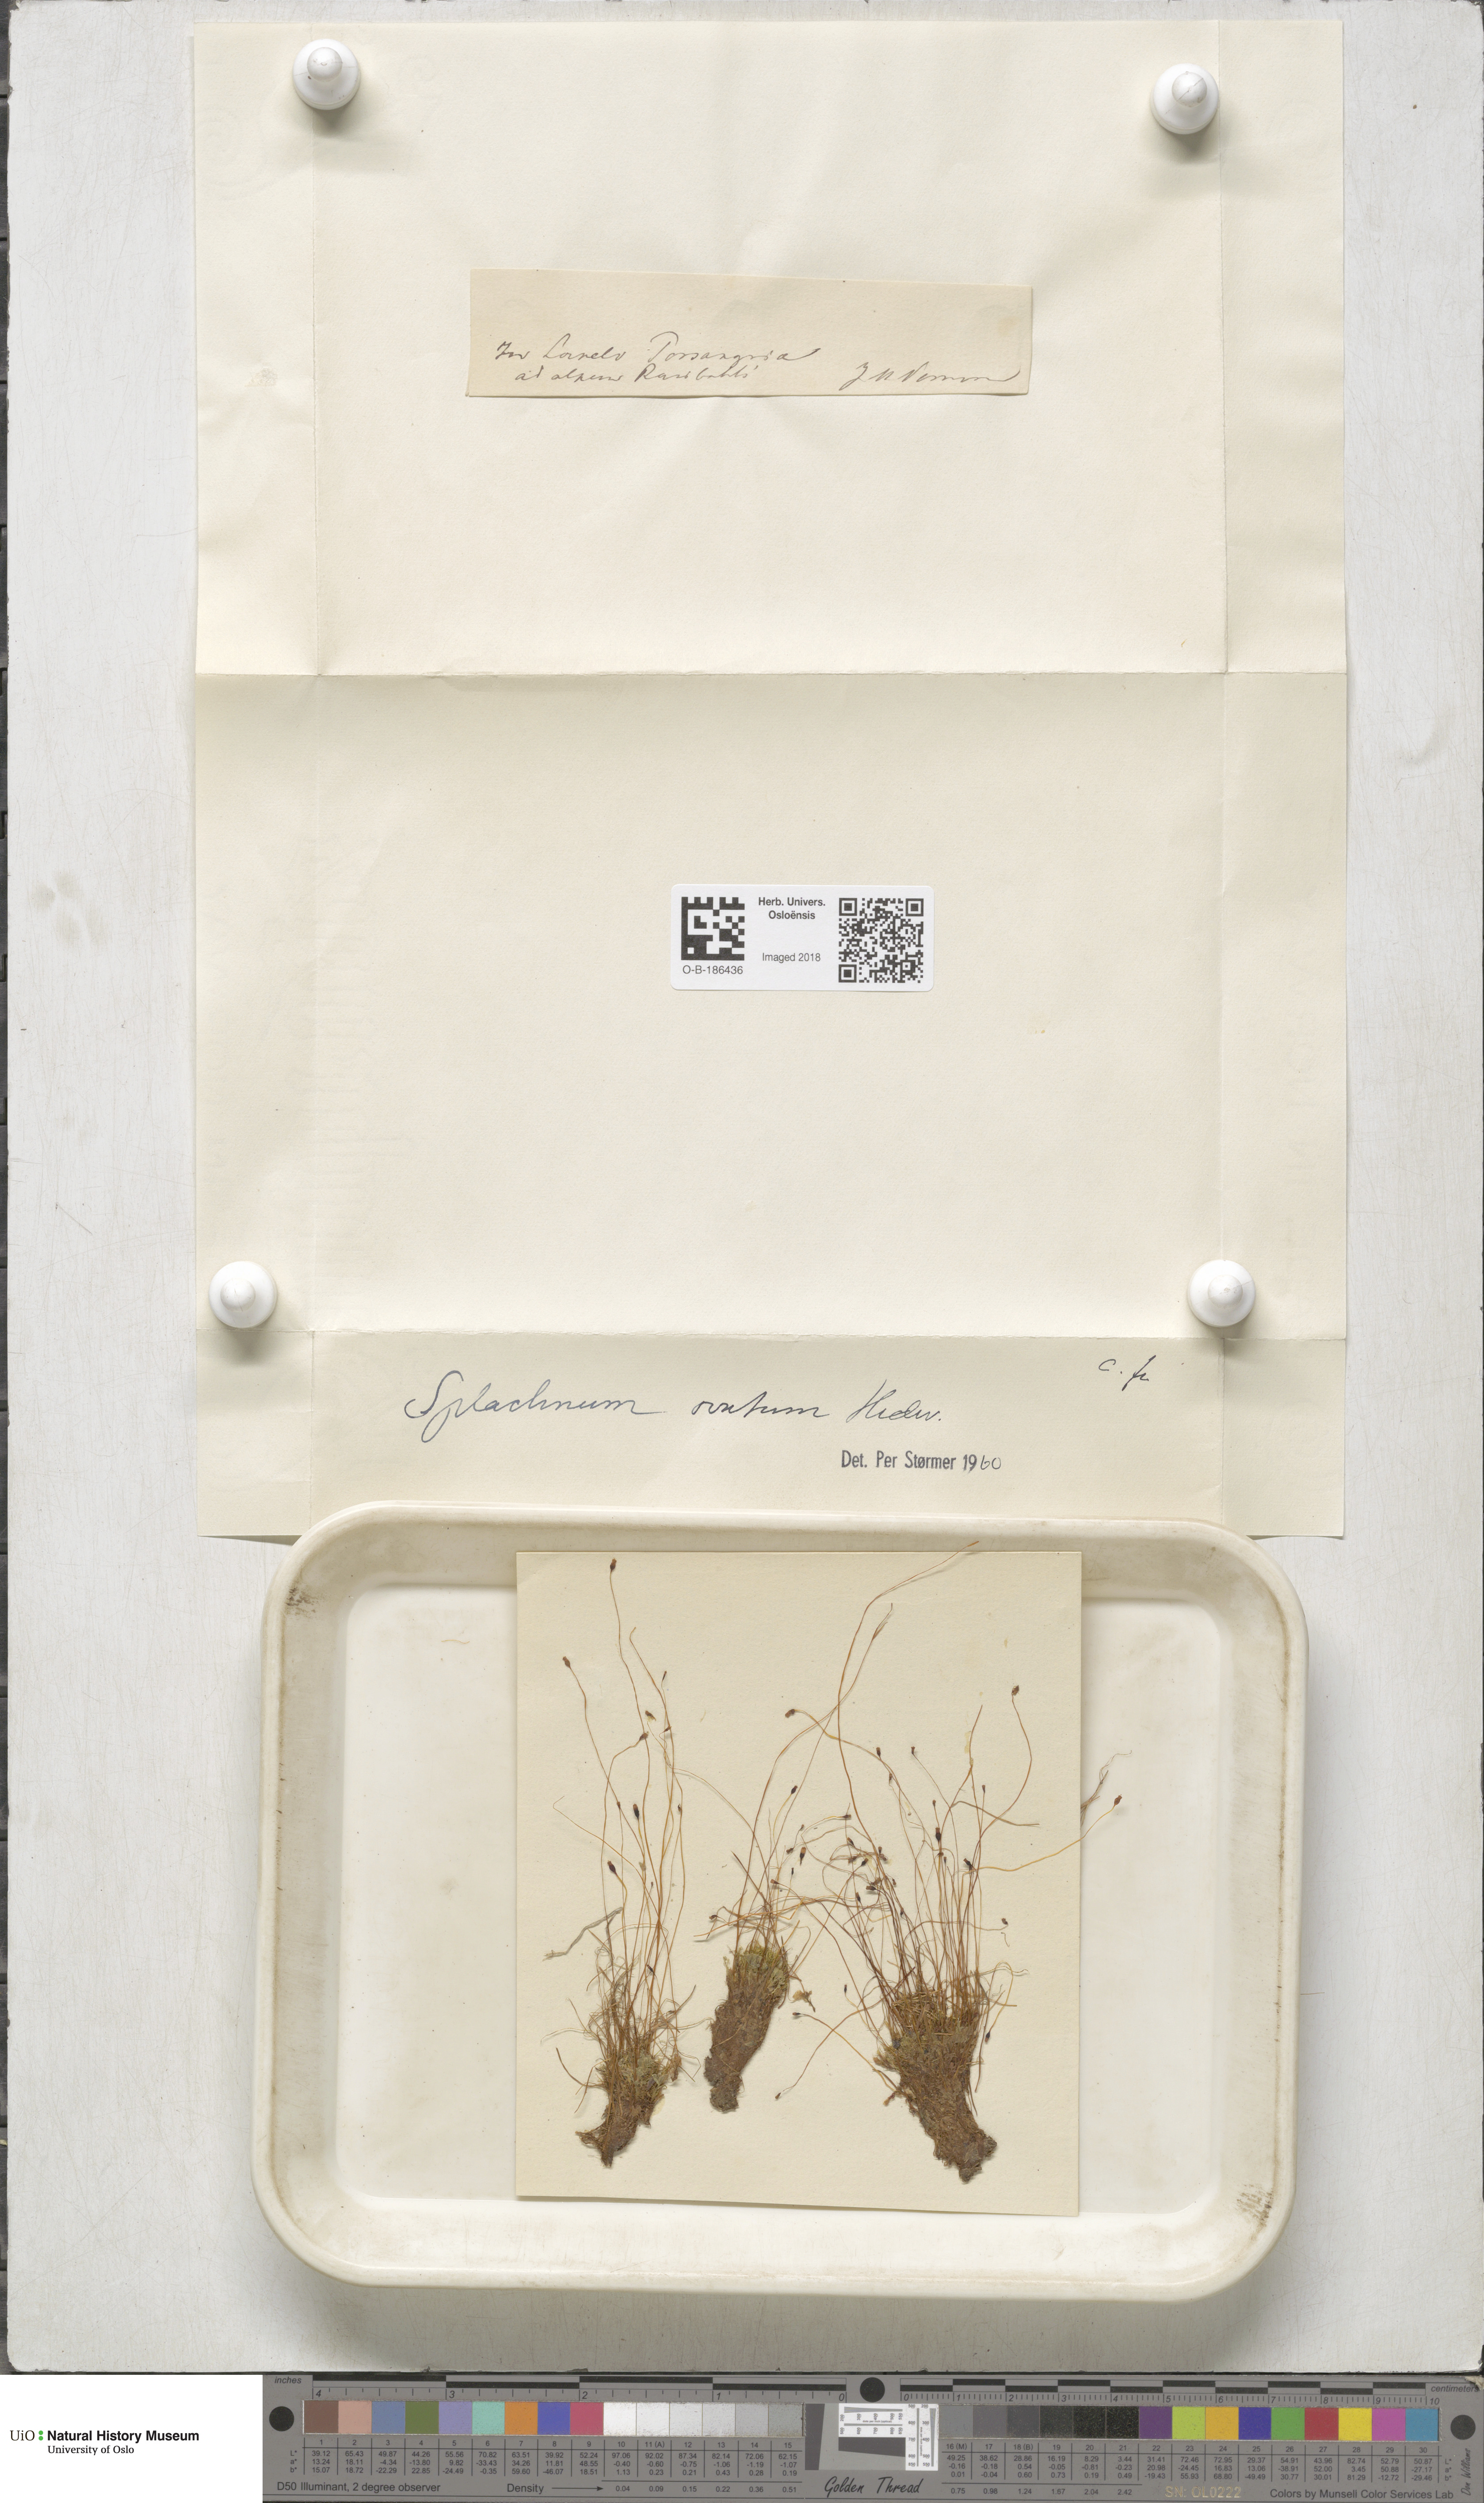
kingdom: Plantae
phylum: Bryophyta
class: Bryopsida
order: Splachnales
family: Splachnaceae
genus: Splachnum
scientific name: Splachnum sphaericum
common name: Round-fruited dung moss
